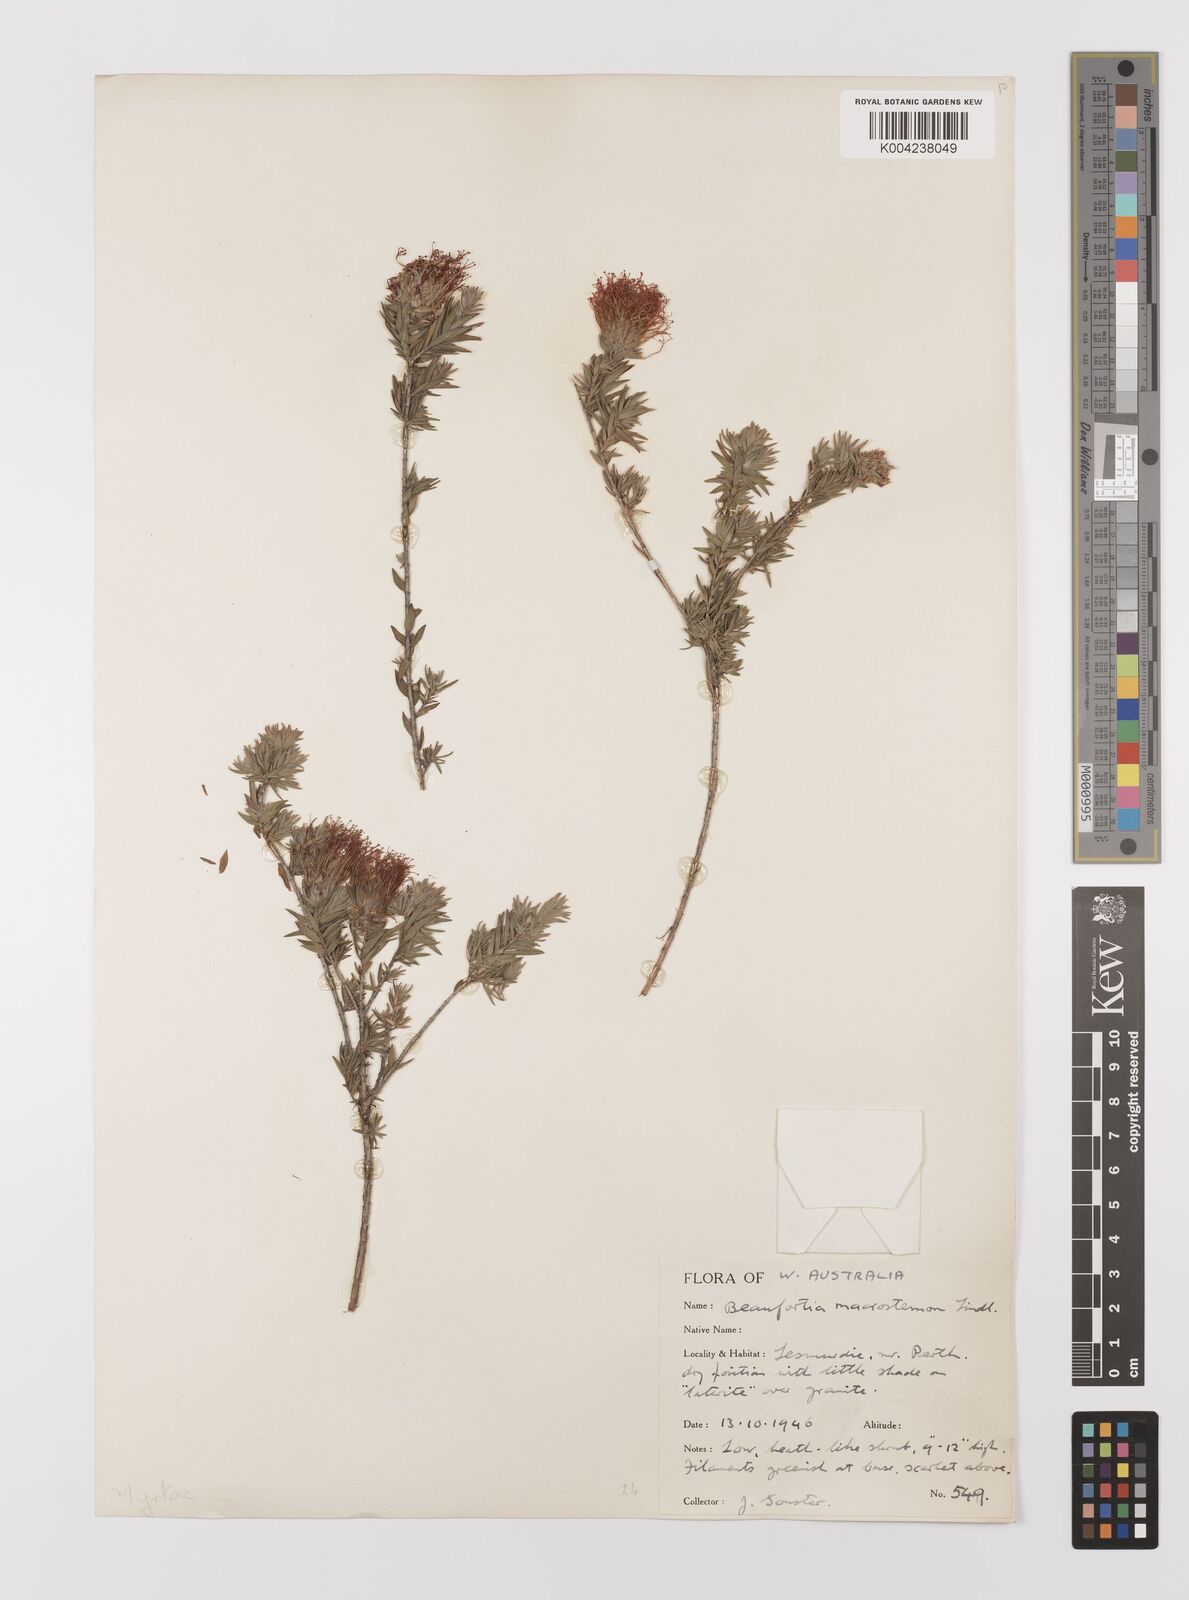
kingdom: Plantae
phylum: Tracheophyta
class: Magnoliopsida
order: Myrtales
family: Myrtaceae
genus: Melaleuca
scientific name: Melaleuca macrostemon
